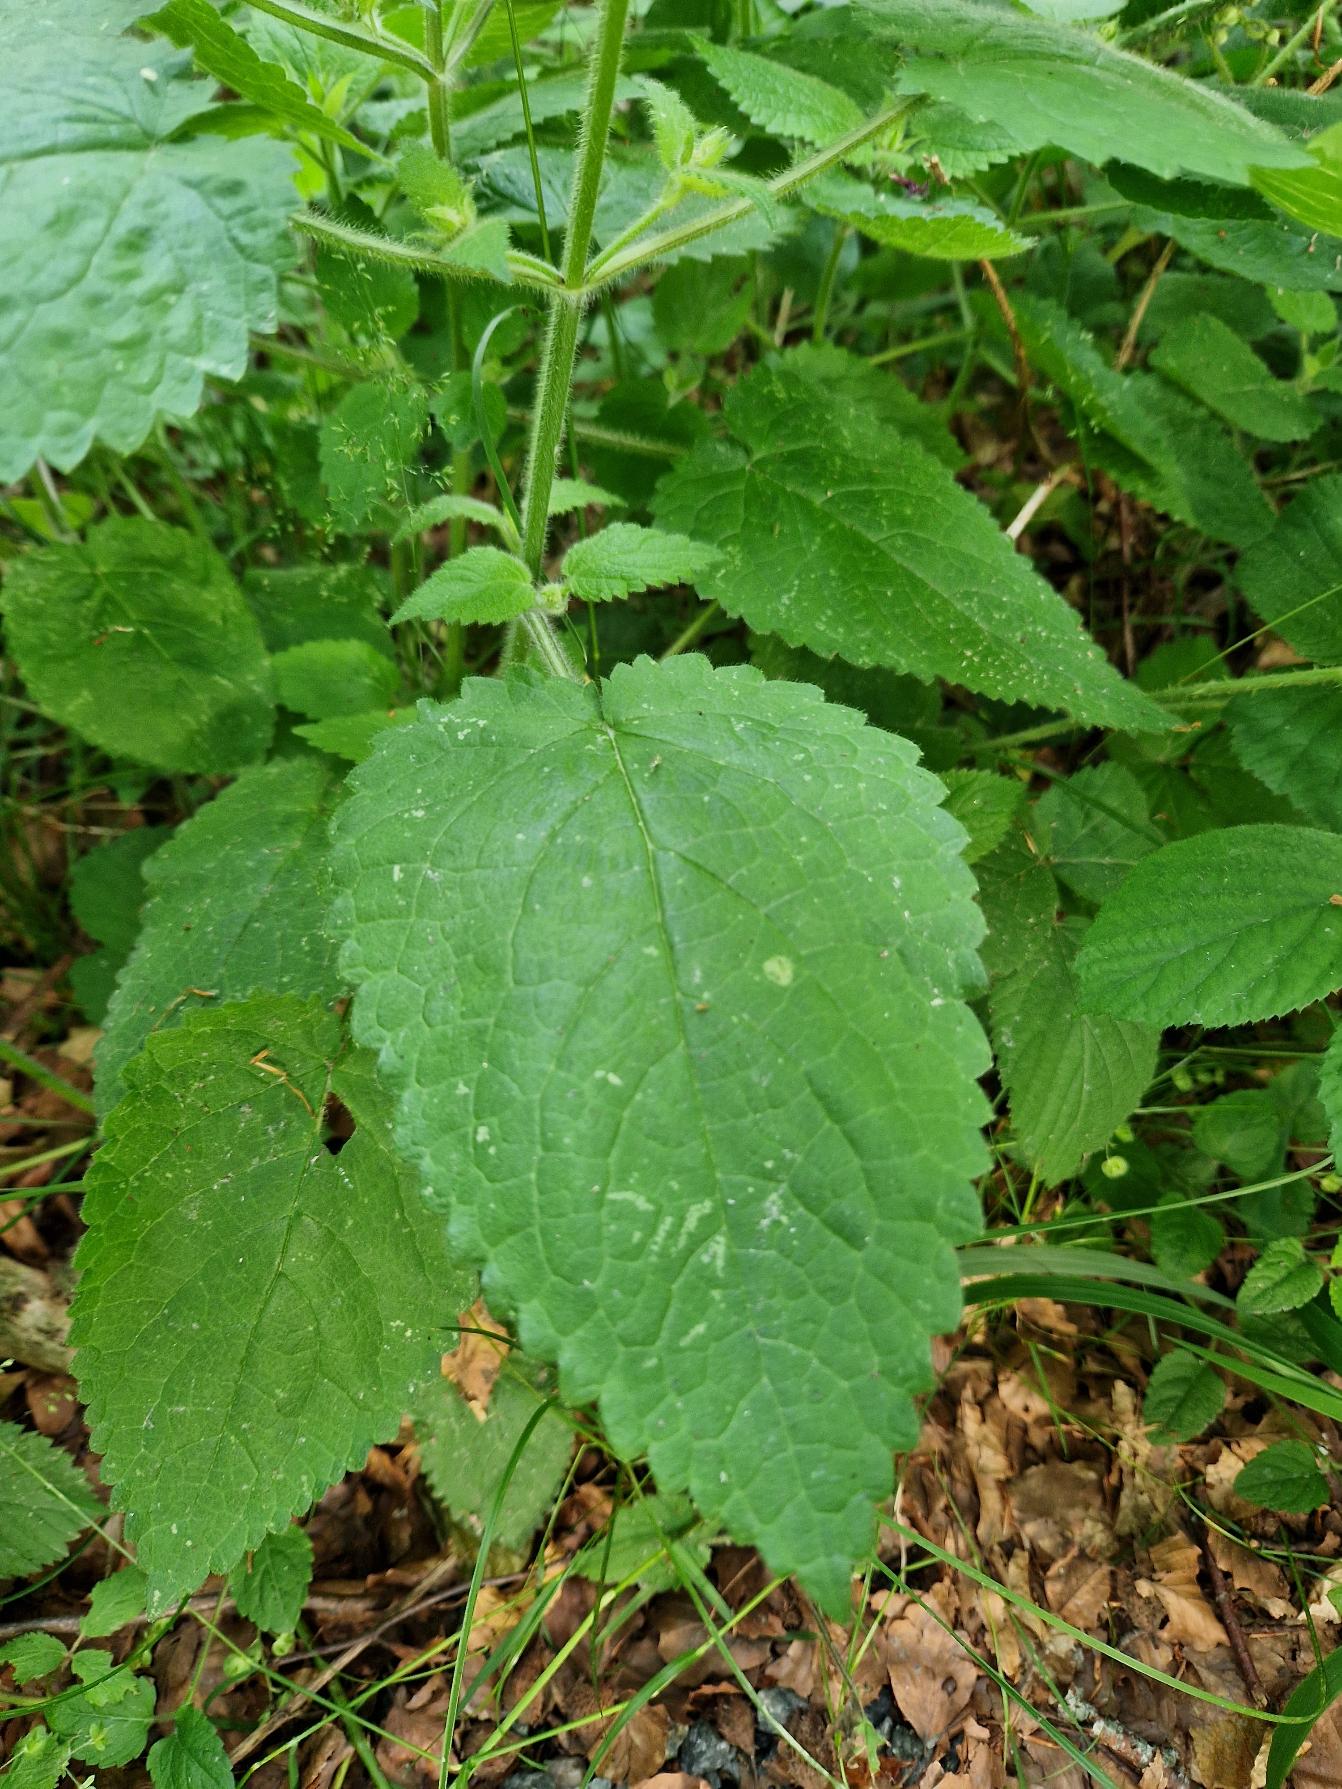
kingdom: Plantae
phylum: Tracheophyta
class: Magnoliopsida
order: Lamiales
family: Lamiaceae
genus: Stachys
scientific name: Stachys sylvatica
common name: Skov-galtetand
